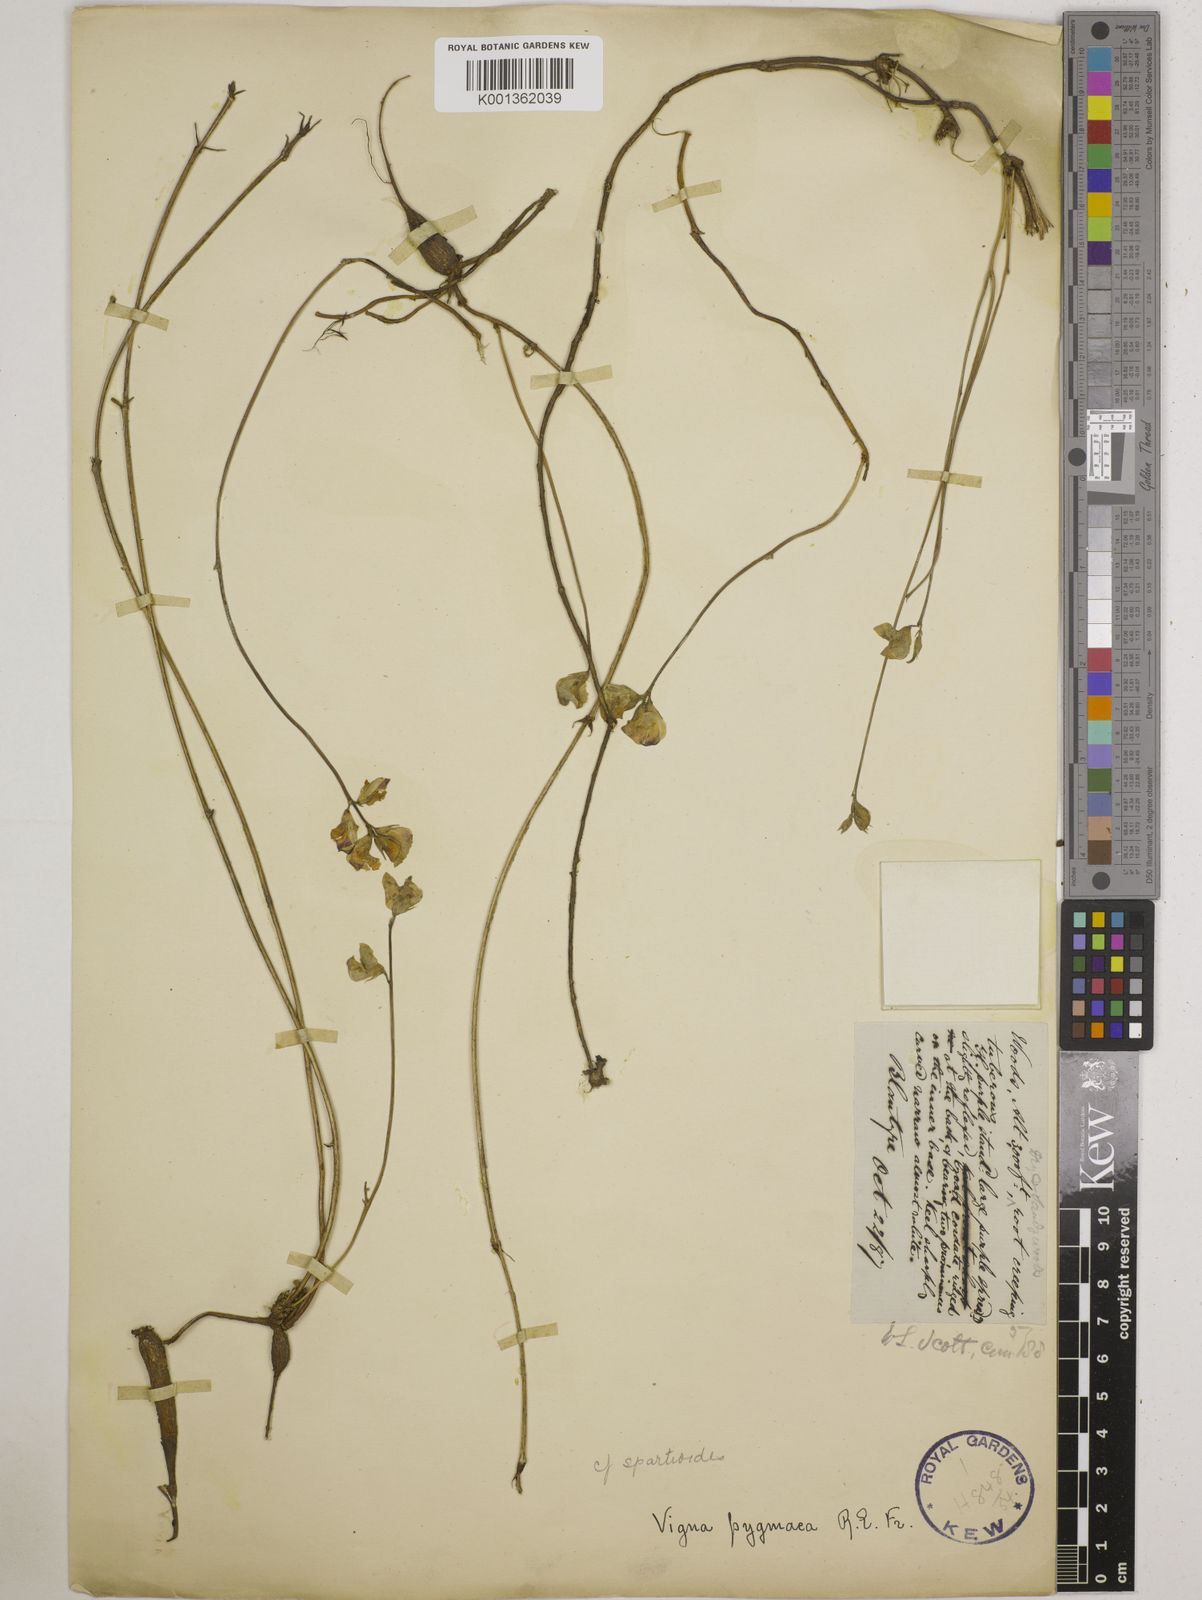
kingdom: Plantae
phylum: Tracheophyta
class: Magnoliopsida
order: Fabales
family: Fabaceae
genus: Vigna
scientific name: Vigna pygmaea
